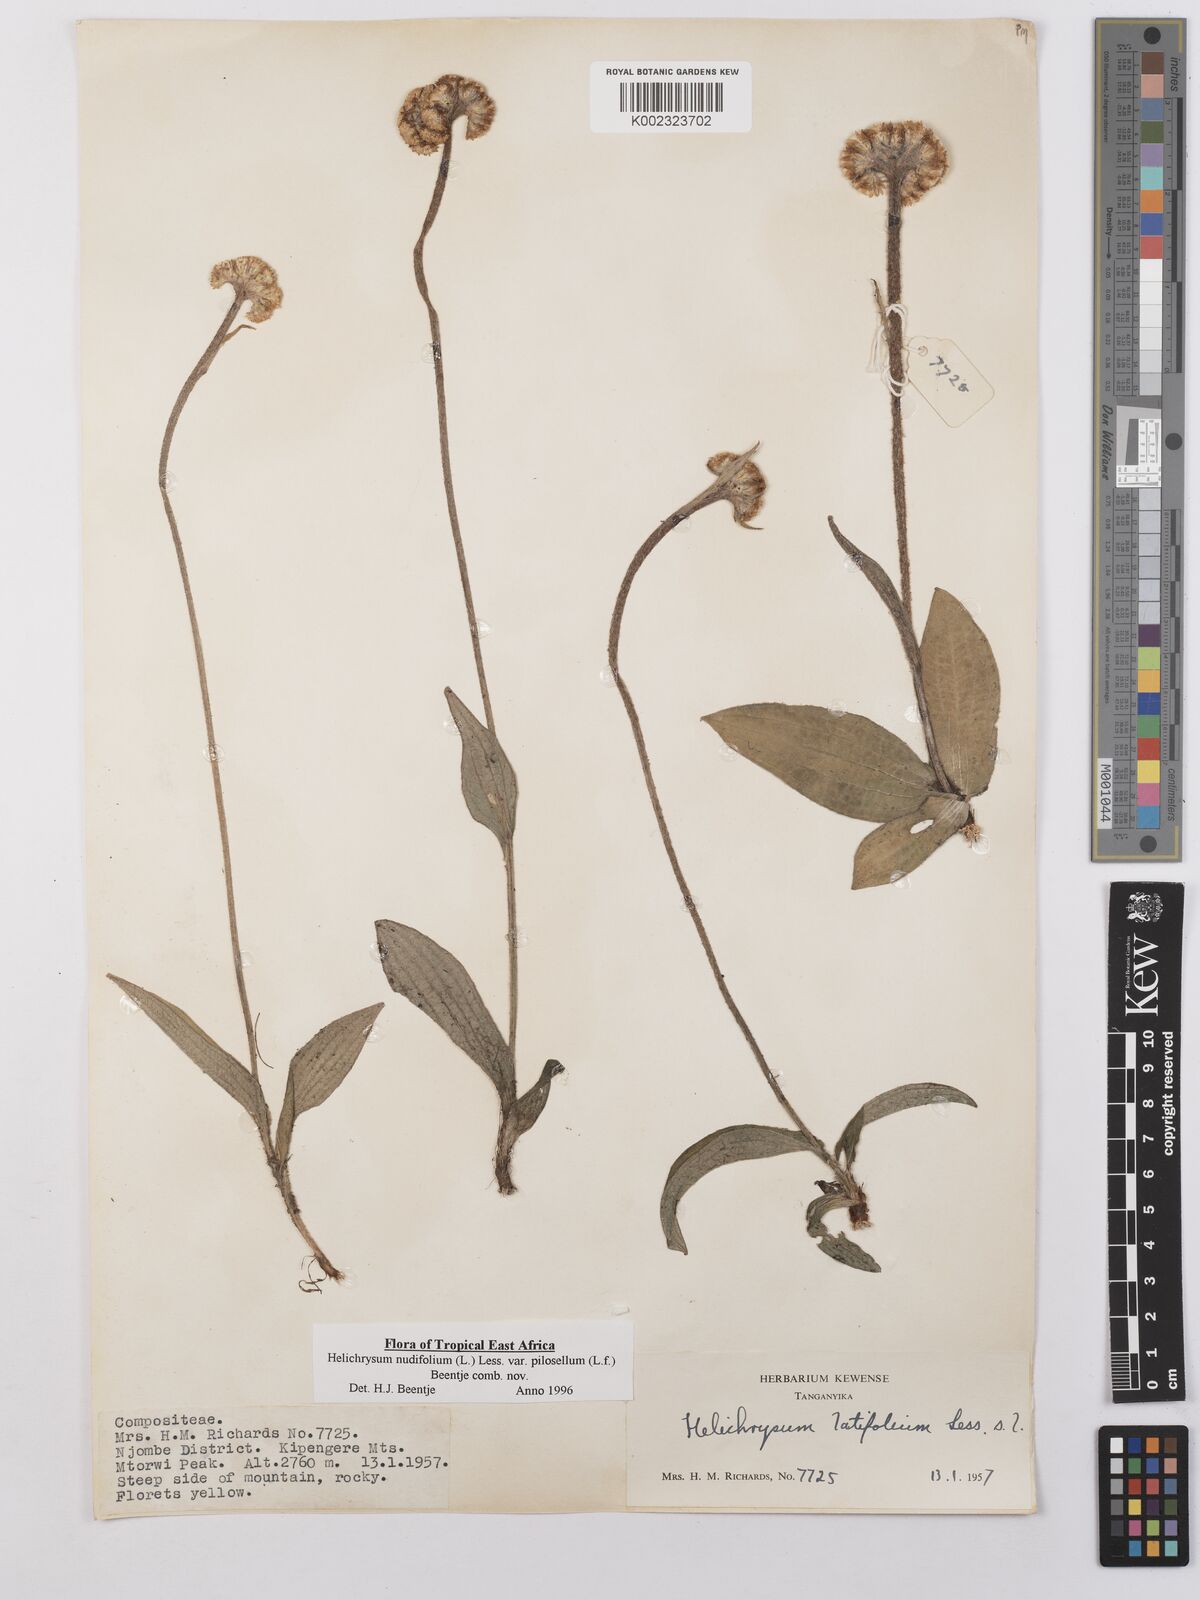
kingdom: Plantae
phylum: Tracheophyta
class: Magnoliopsida
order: Asterales
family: Asteraceae
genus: Helichrysum
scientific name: Helichrysum nudifolium
